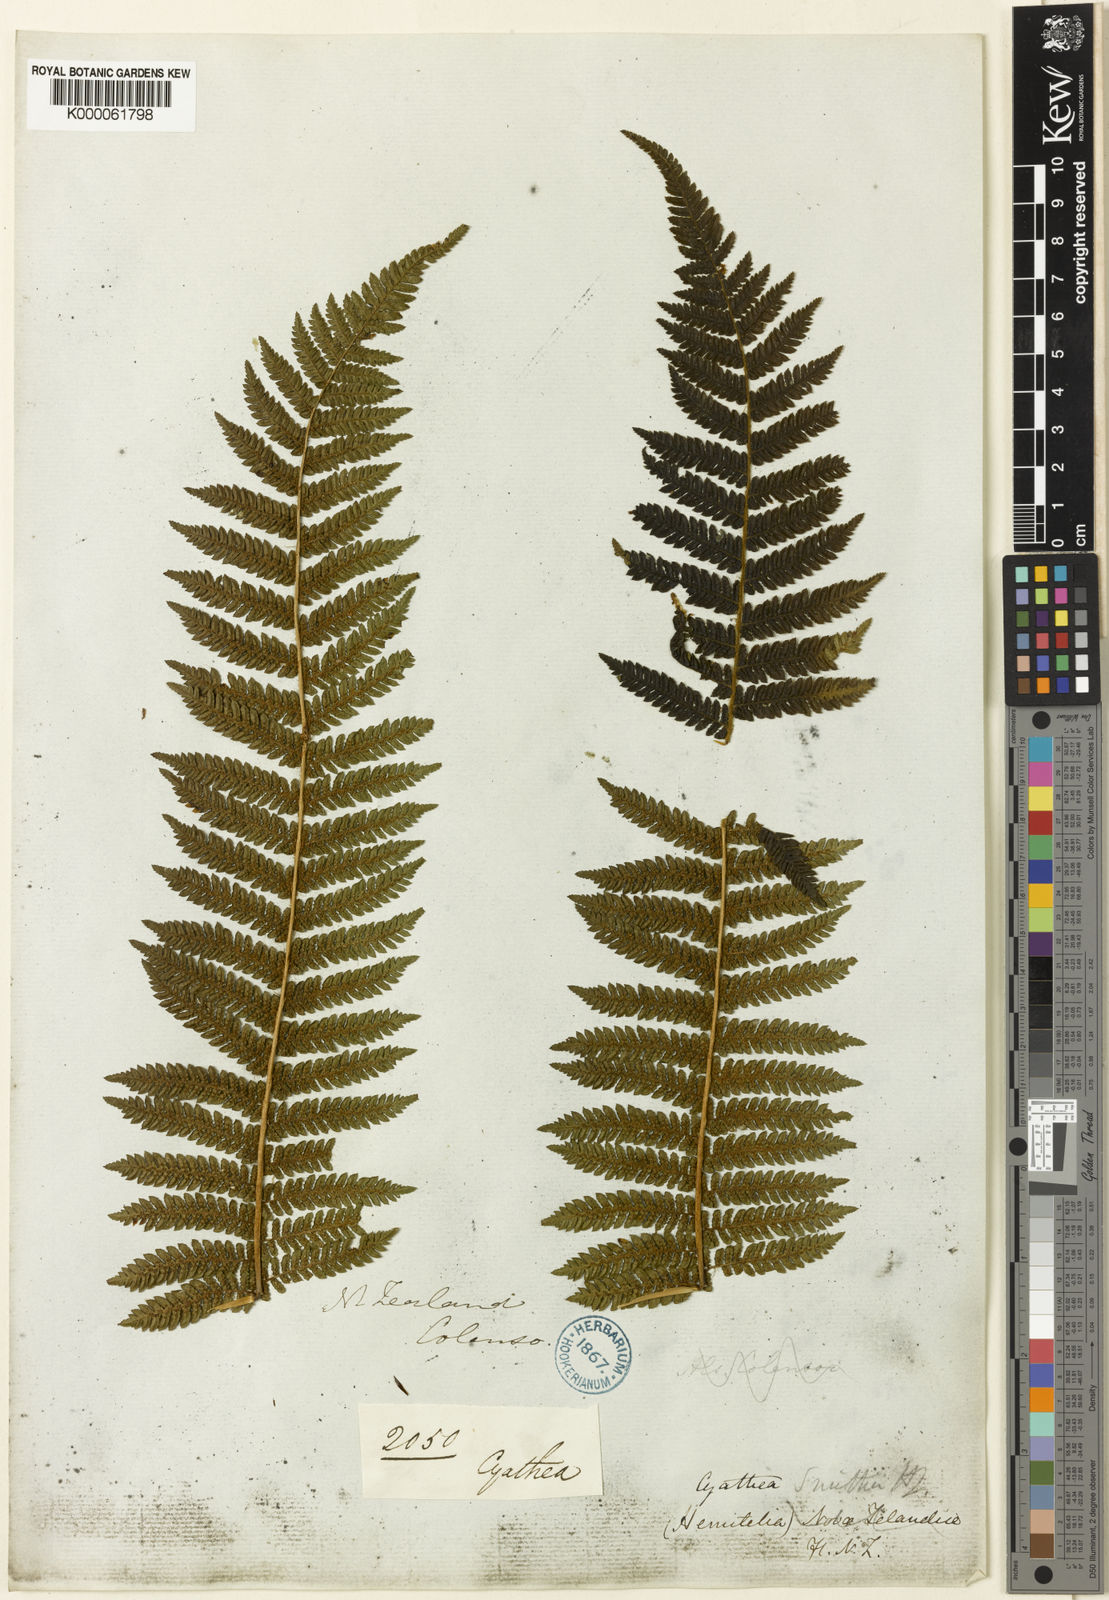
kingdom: Plantae
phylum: Tracheophyta
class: Polypodiopsida
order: Cyatheales
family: Cyatheaceae
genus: Alsophila
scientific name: Alsophila smithii
